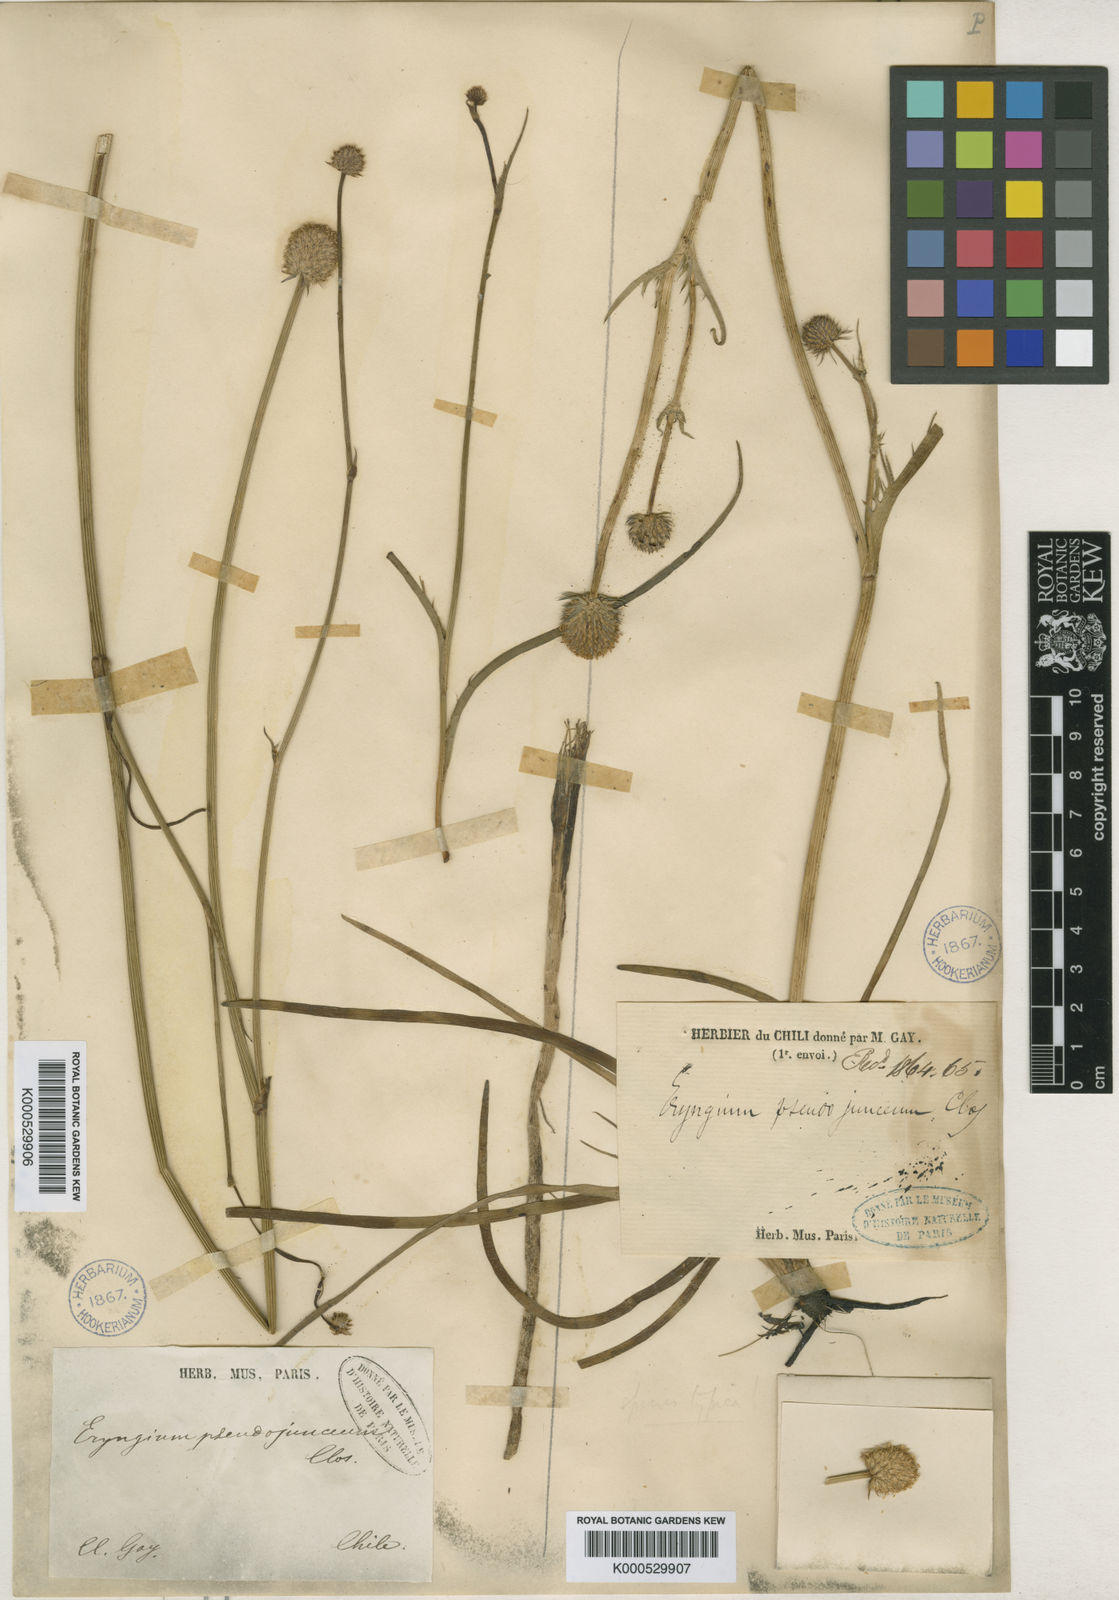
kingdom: Plantae
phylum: Tracheophyta
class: Magnoliopsida
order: Apiales
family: Apiaceae
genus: Eryngium
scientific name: Eryngium pseudojunceum
